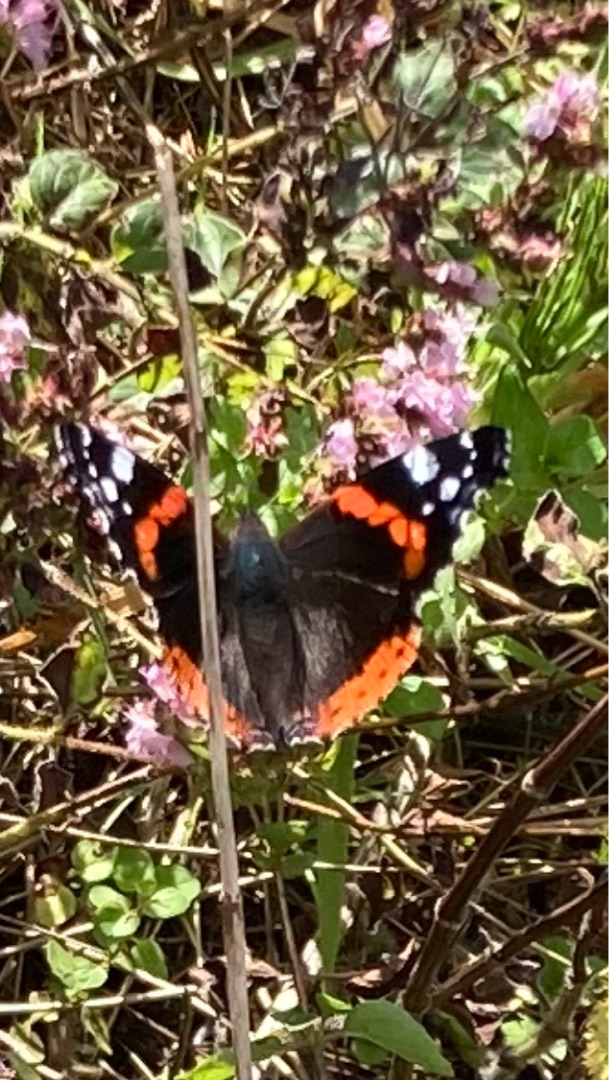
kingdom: Animalia
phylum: Arthropoda
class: Insecta
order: Lepidoptera
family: Nymphalidae
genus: Vanessa
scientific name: Vanessa atalanta
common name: Admiral
